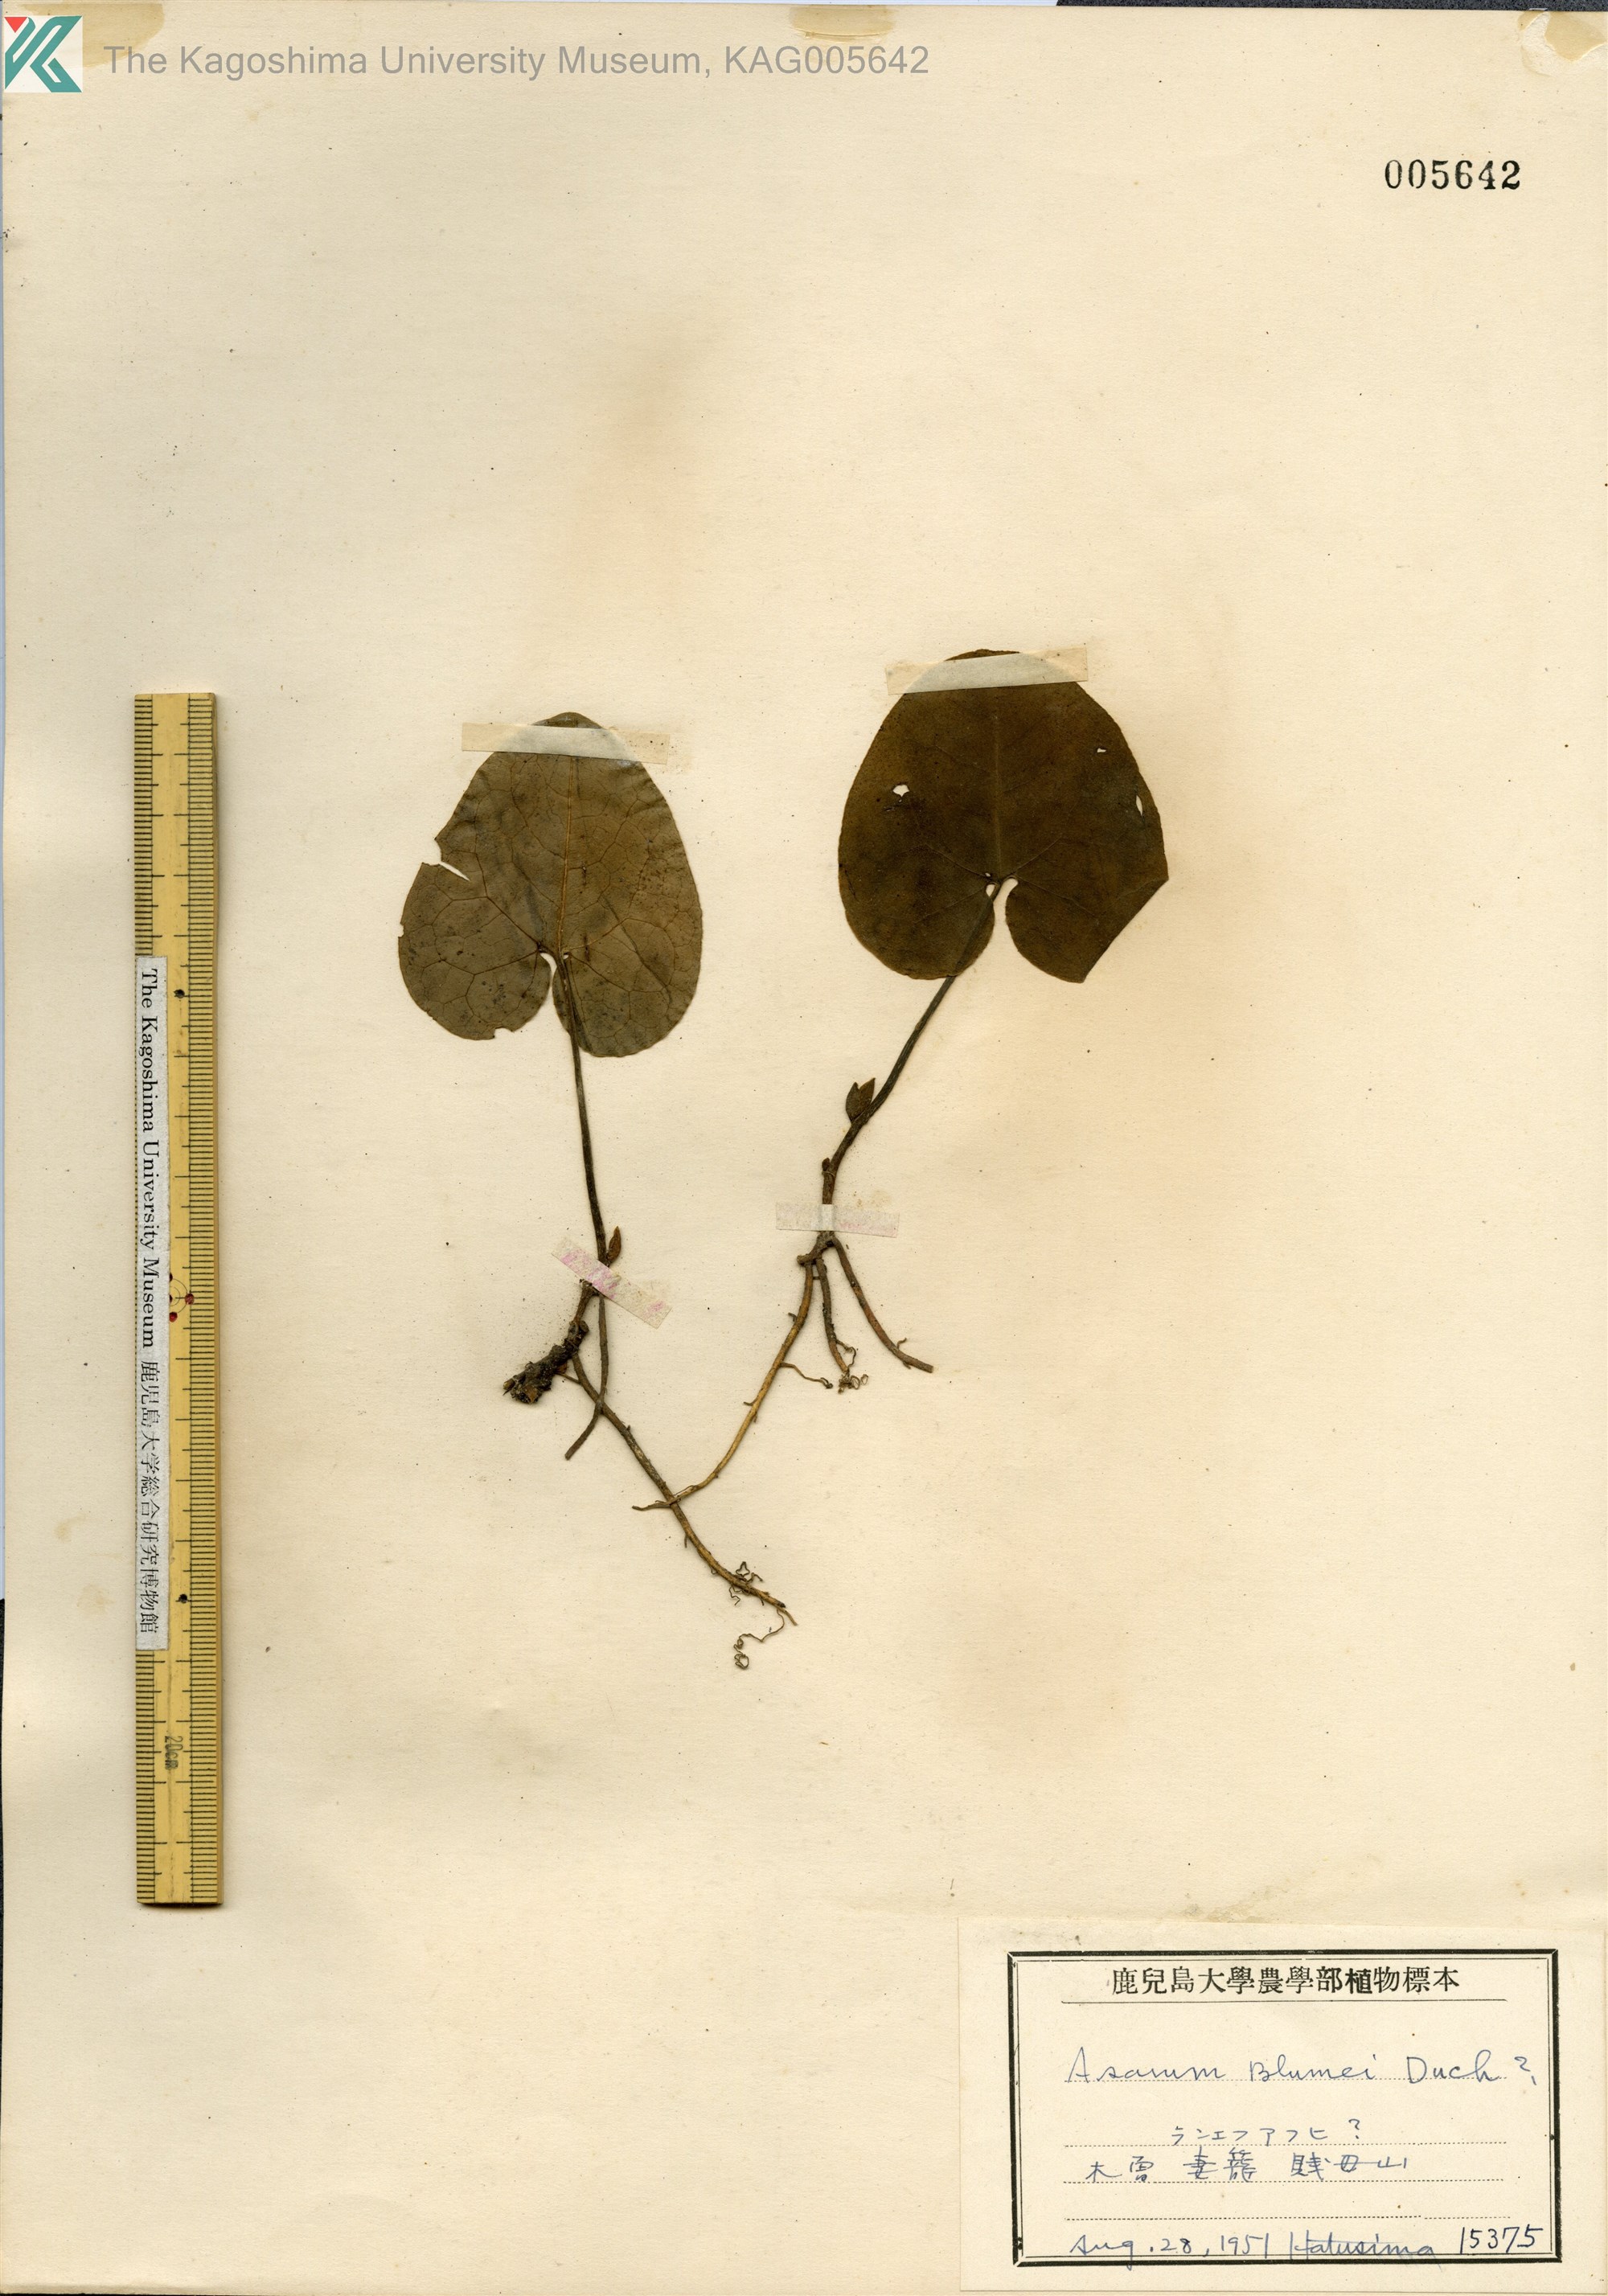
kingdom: Plantae
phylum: Tracheophyta
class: Magnoliopsida
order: Piperales
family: Aristolochiaceae
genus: Asarum
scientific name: Asarum nipponicum
